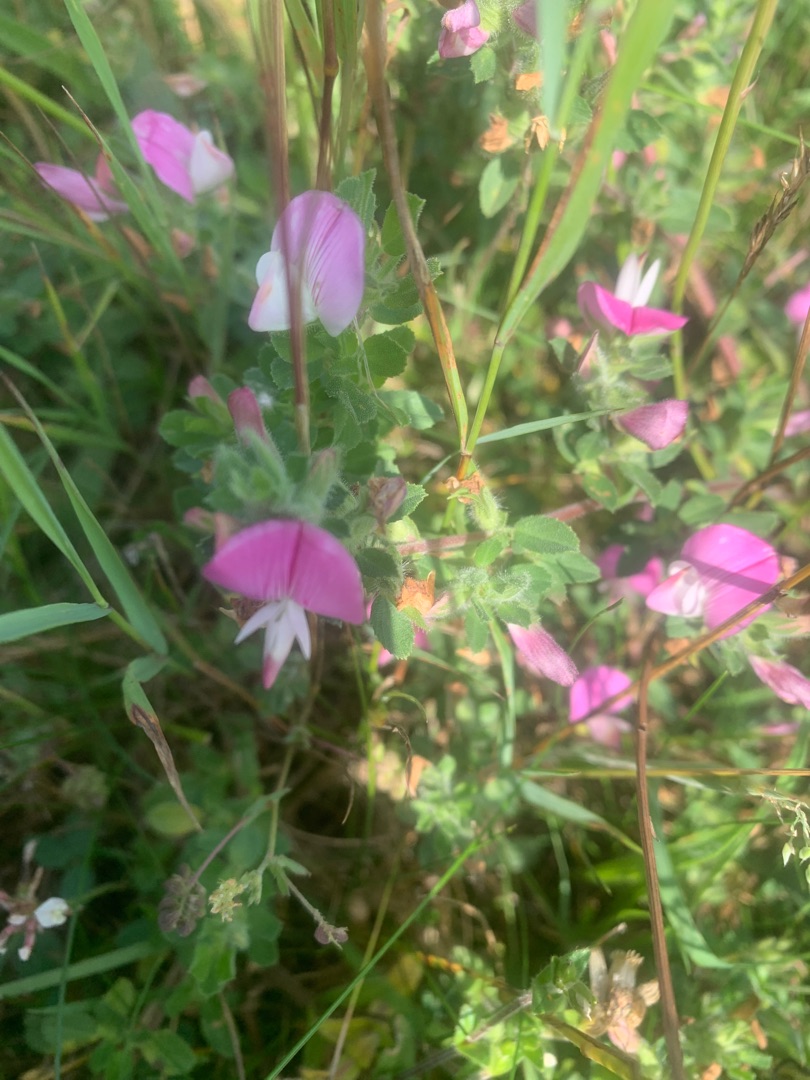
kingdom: Plantae
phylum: Tracheophyta
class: Magnoliopsida
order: Fabales
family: Fabaceae
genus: Ononis
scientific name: Ononis spinosa
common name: Mark-krageklo
